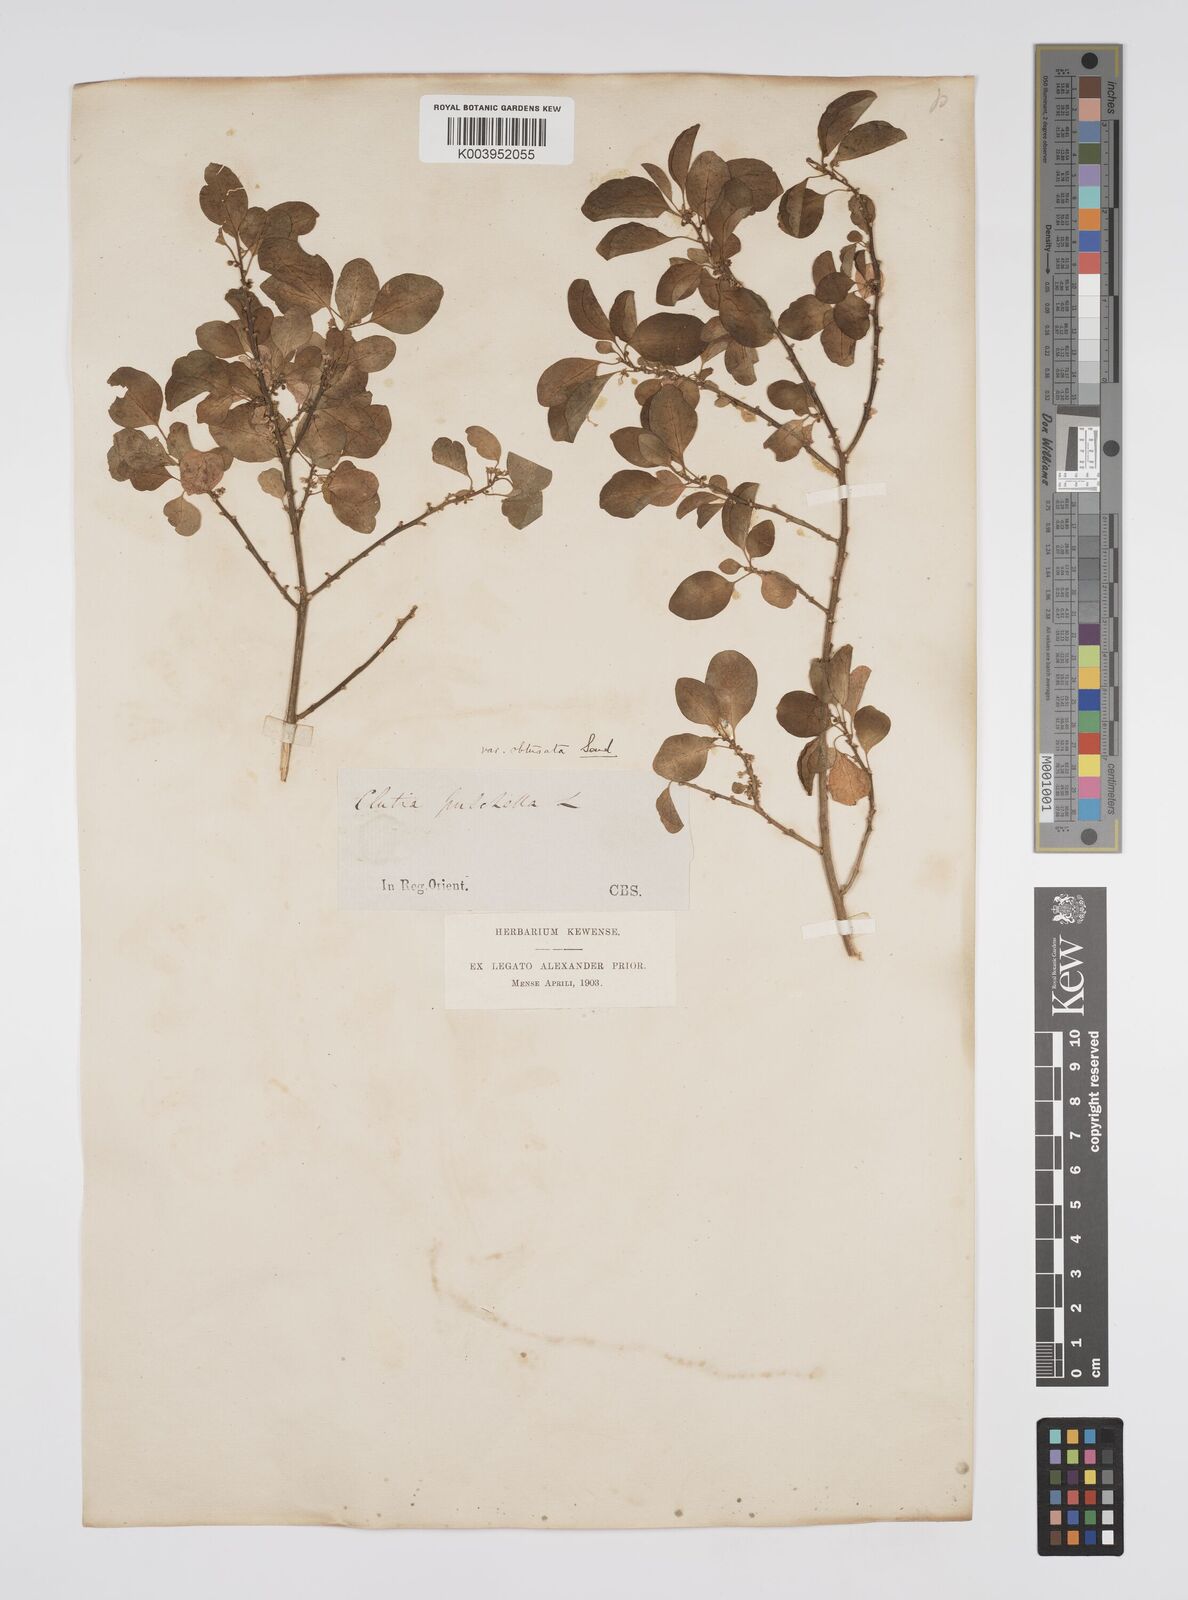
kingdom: Plantae
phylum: Tracheophyta
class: Magnoliopsida
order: Malpighiales
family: Peraceae
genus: Clutia
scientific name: Clutia pulchella
